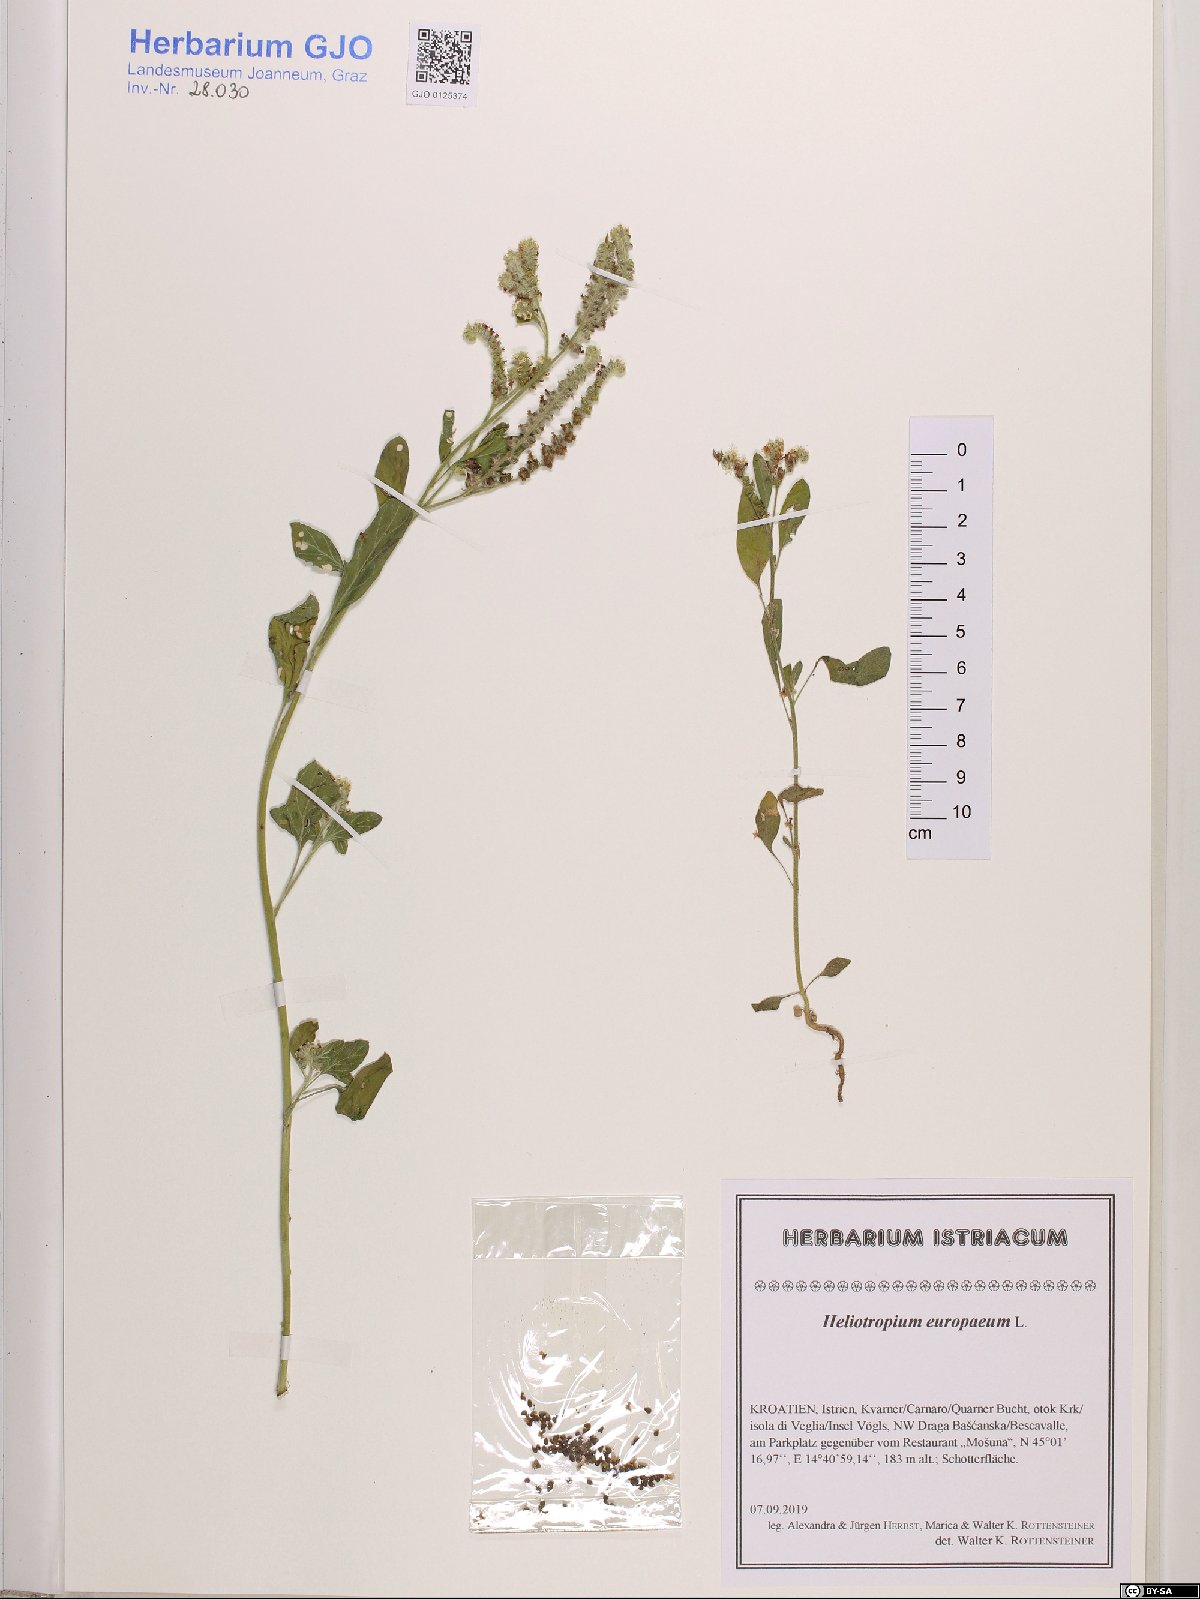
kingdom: Plantae
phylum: Tracheophyta
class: Magnoliopsida
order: Boraginales
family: Heliotropiaceae
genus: Heliotropium
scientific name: Heliotropium europaeum
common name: European heliotrope
